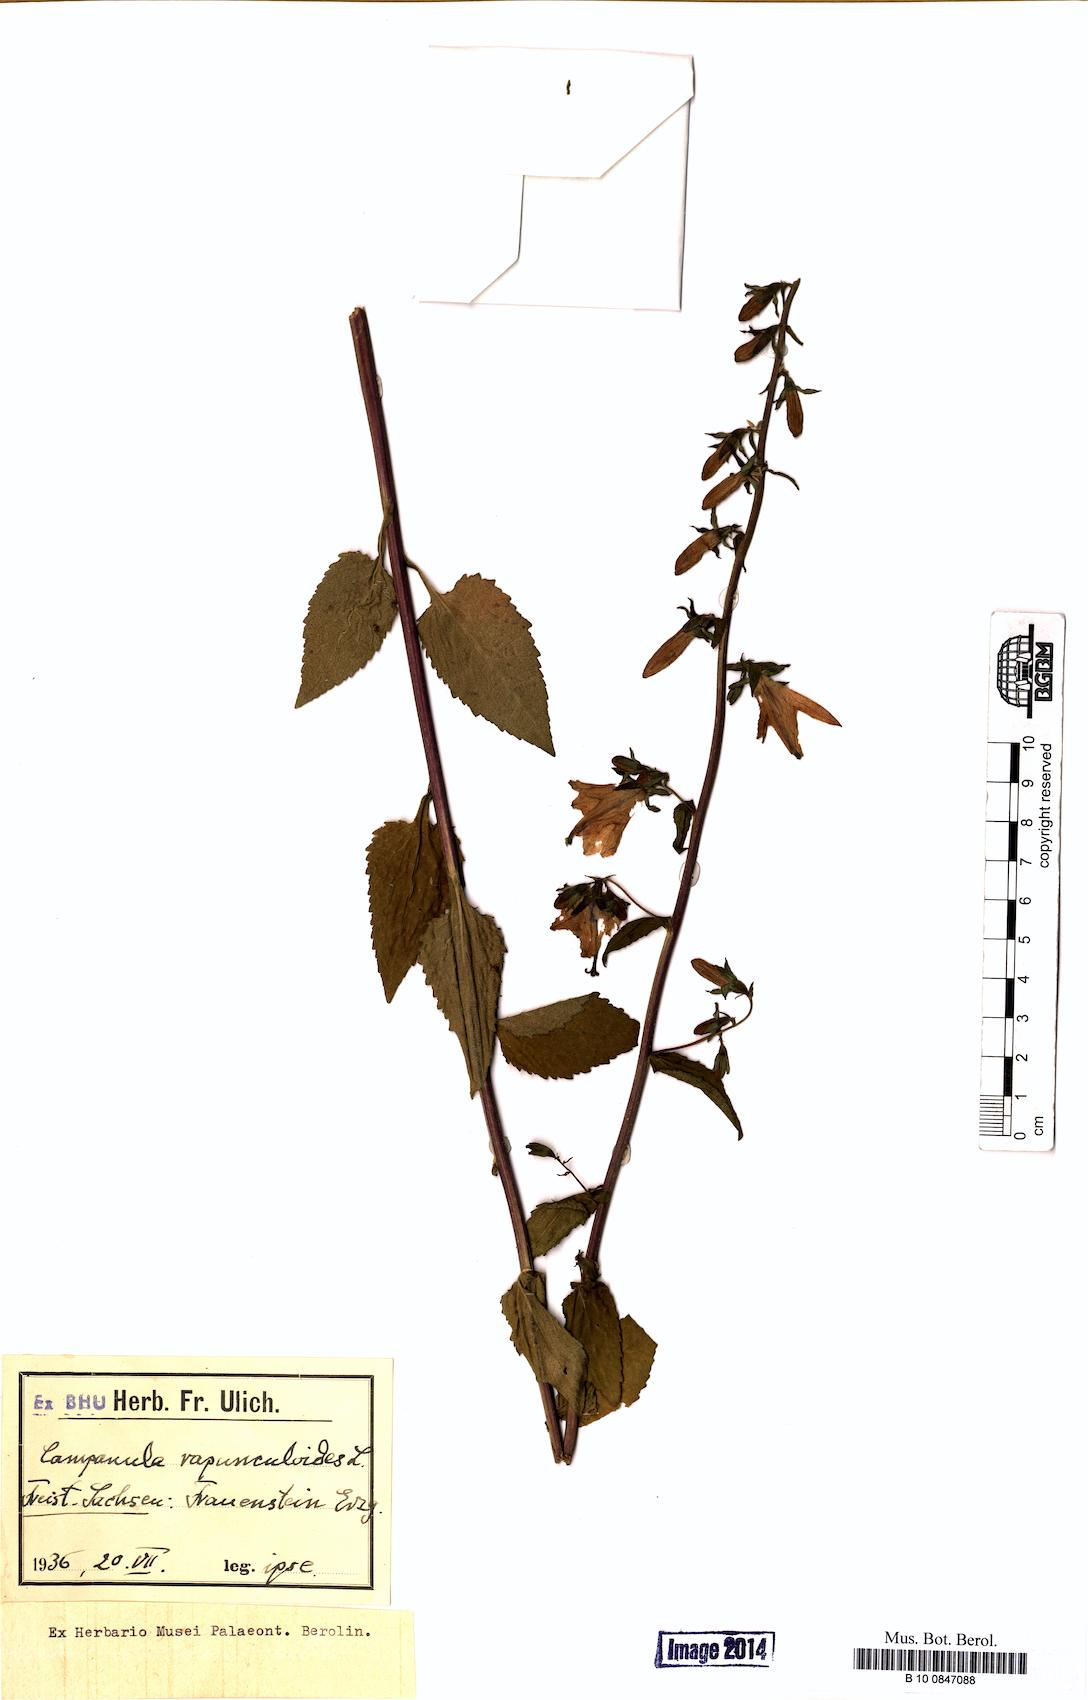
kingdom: Plantae
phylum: Tracheophyta
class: Magnoliopsida
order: Asterales
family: Campanulaceae
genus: Campanula
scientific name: Campanula rapunculoides
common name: Creeping bellflower
